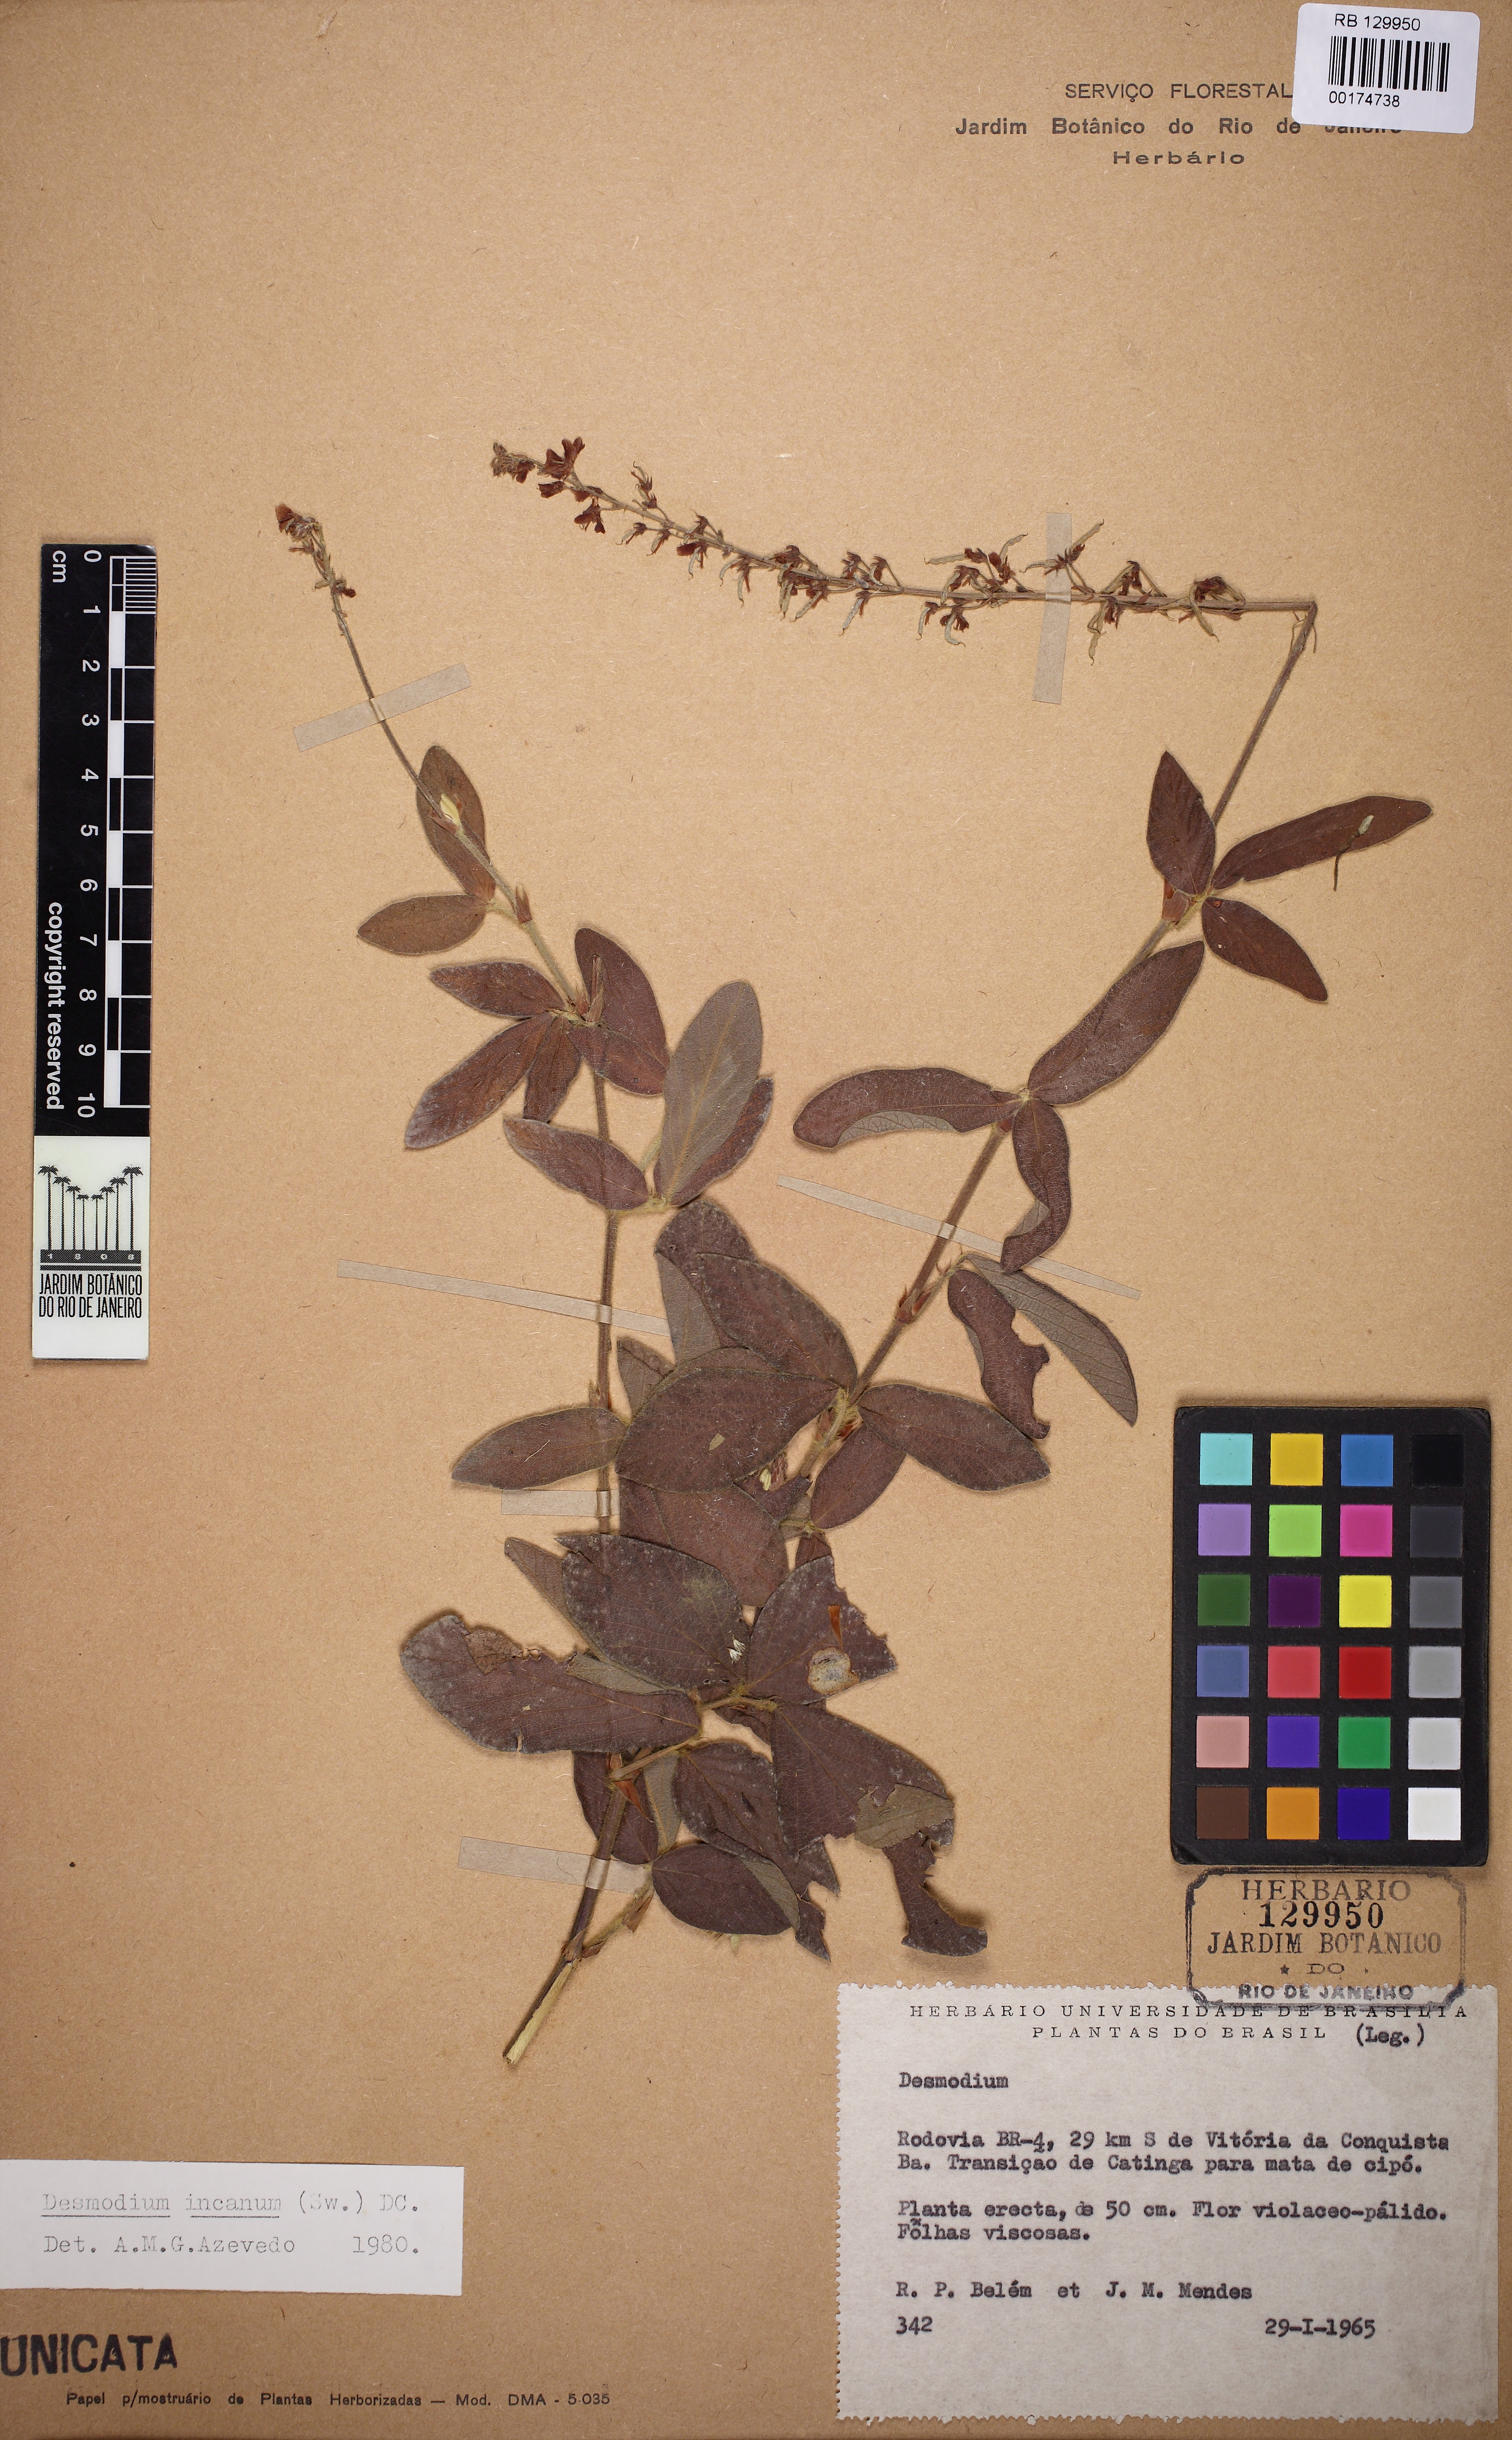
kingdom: Plantae
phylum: Tracheophyta
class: Magnoliopsida
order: Fabales
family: Fabaceae
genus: Desmodium
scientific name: Desmodium
